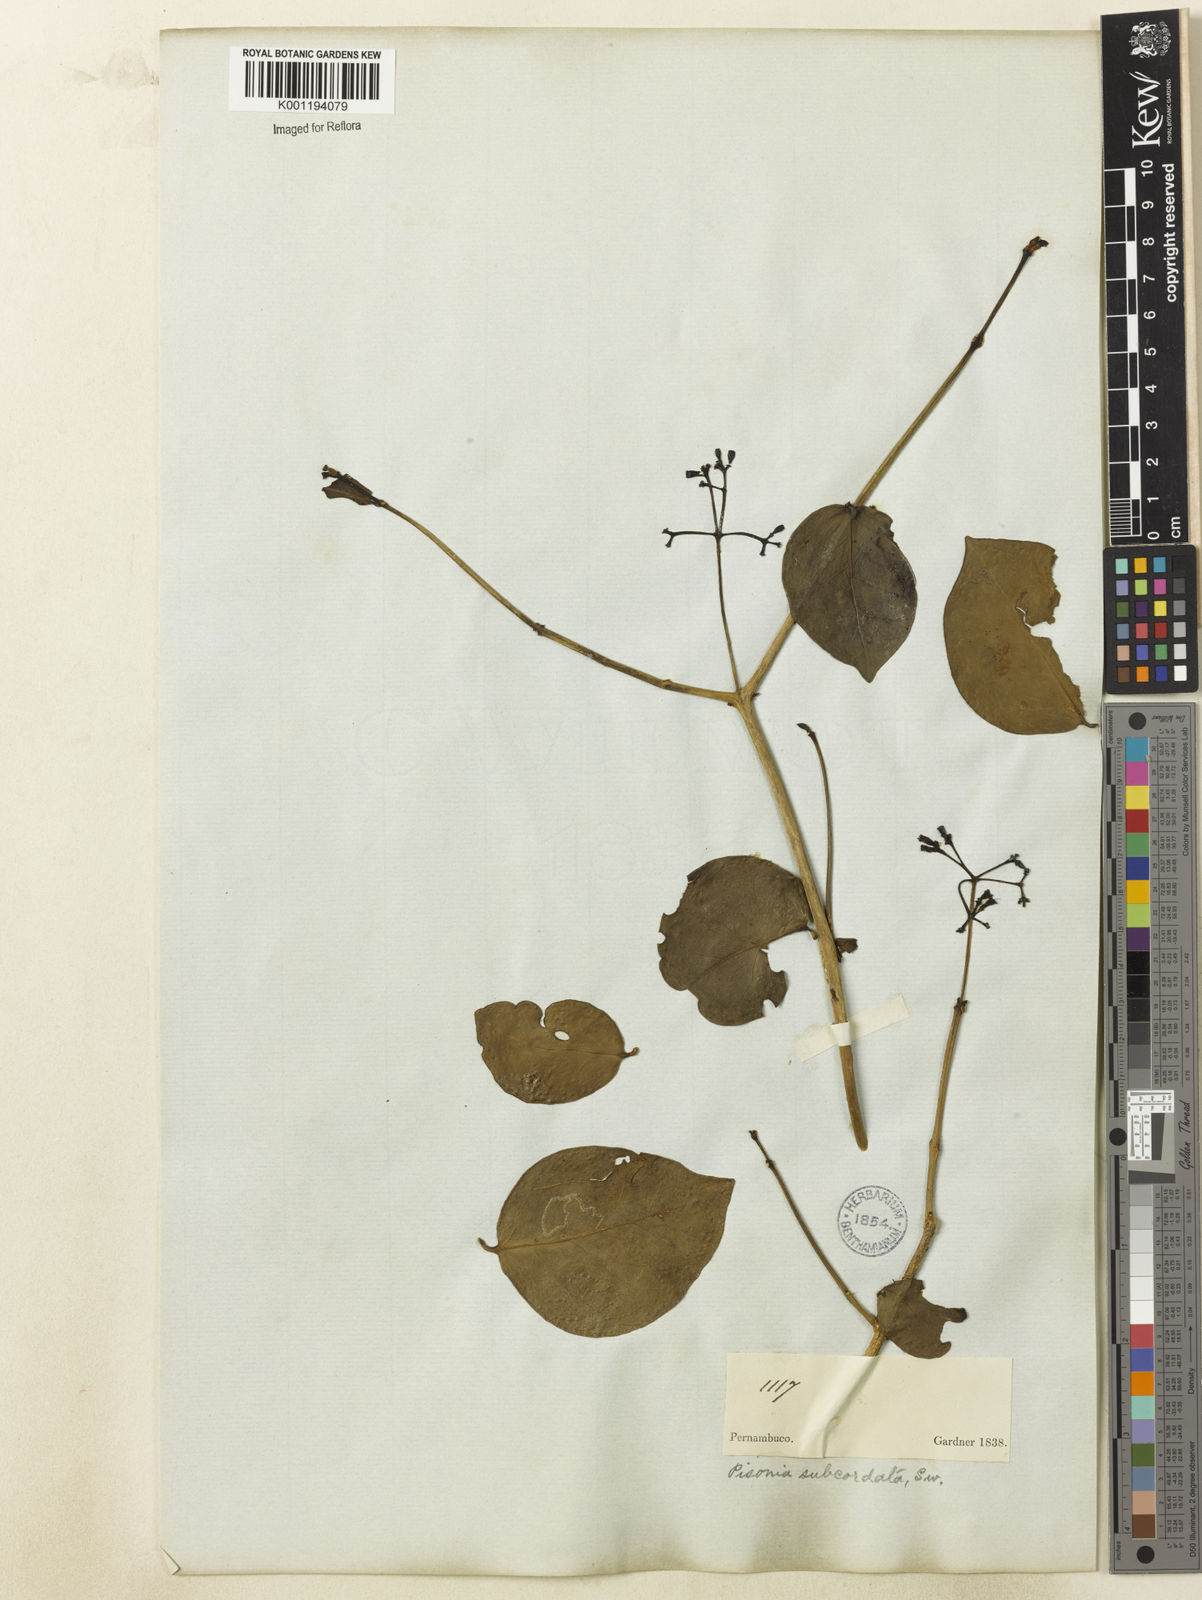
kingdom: Plantae
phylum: Tracheophyta
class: Magnoliopsida
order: Caryophyllales
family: Nyctaginaceae
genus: Guapira
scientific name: Guapira
